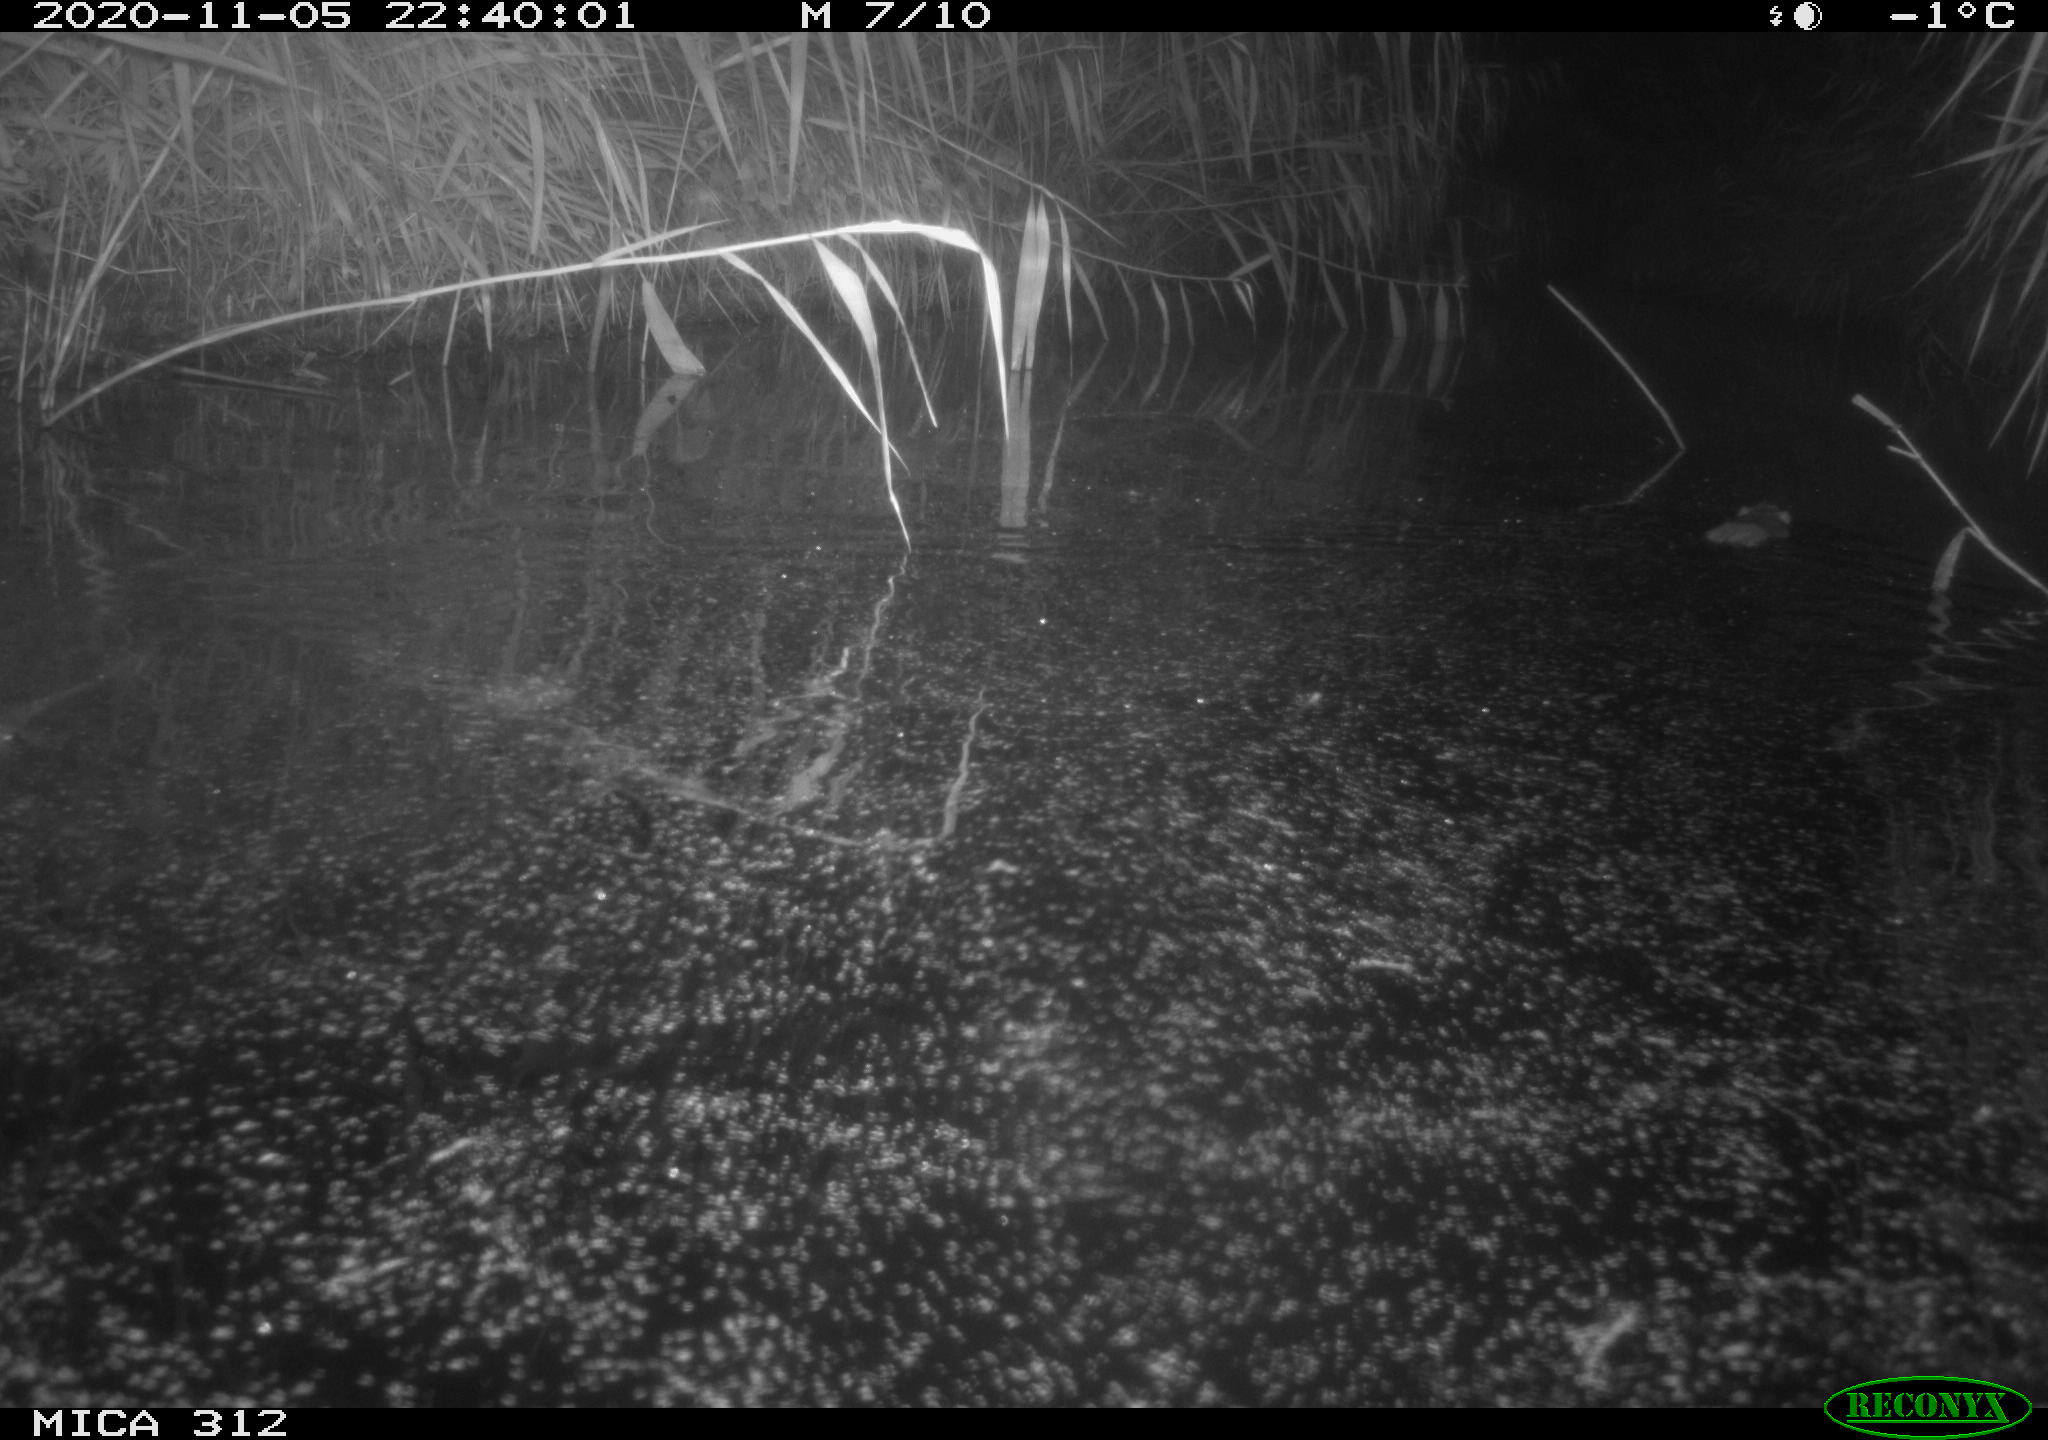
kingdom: Animalia
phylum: Chordata
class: Mammalia
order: Rodentia
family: Muridae
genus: Rattus
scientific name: Rattus norvegicus
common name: Brown rat
